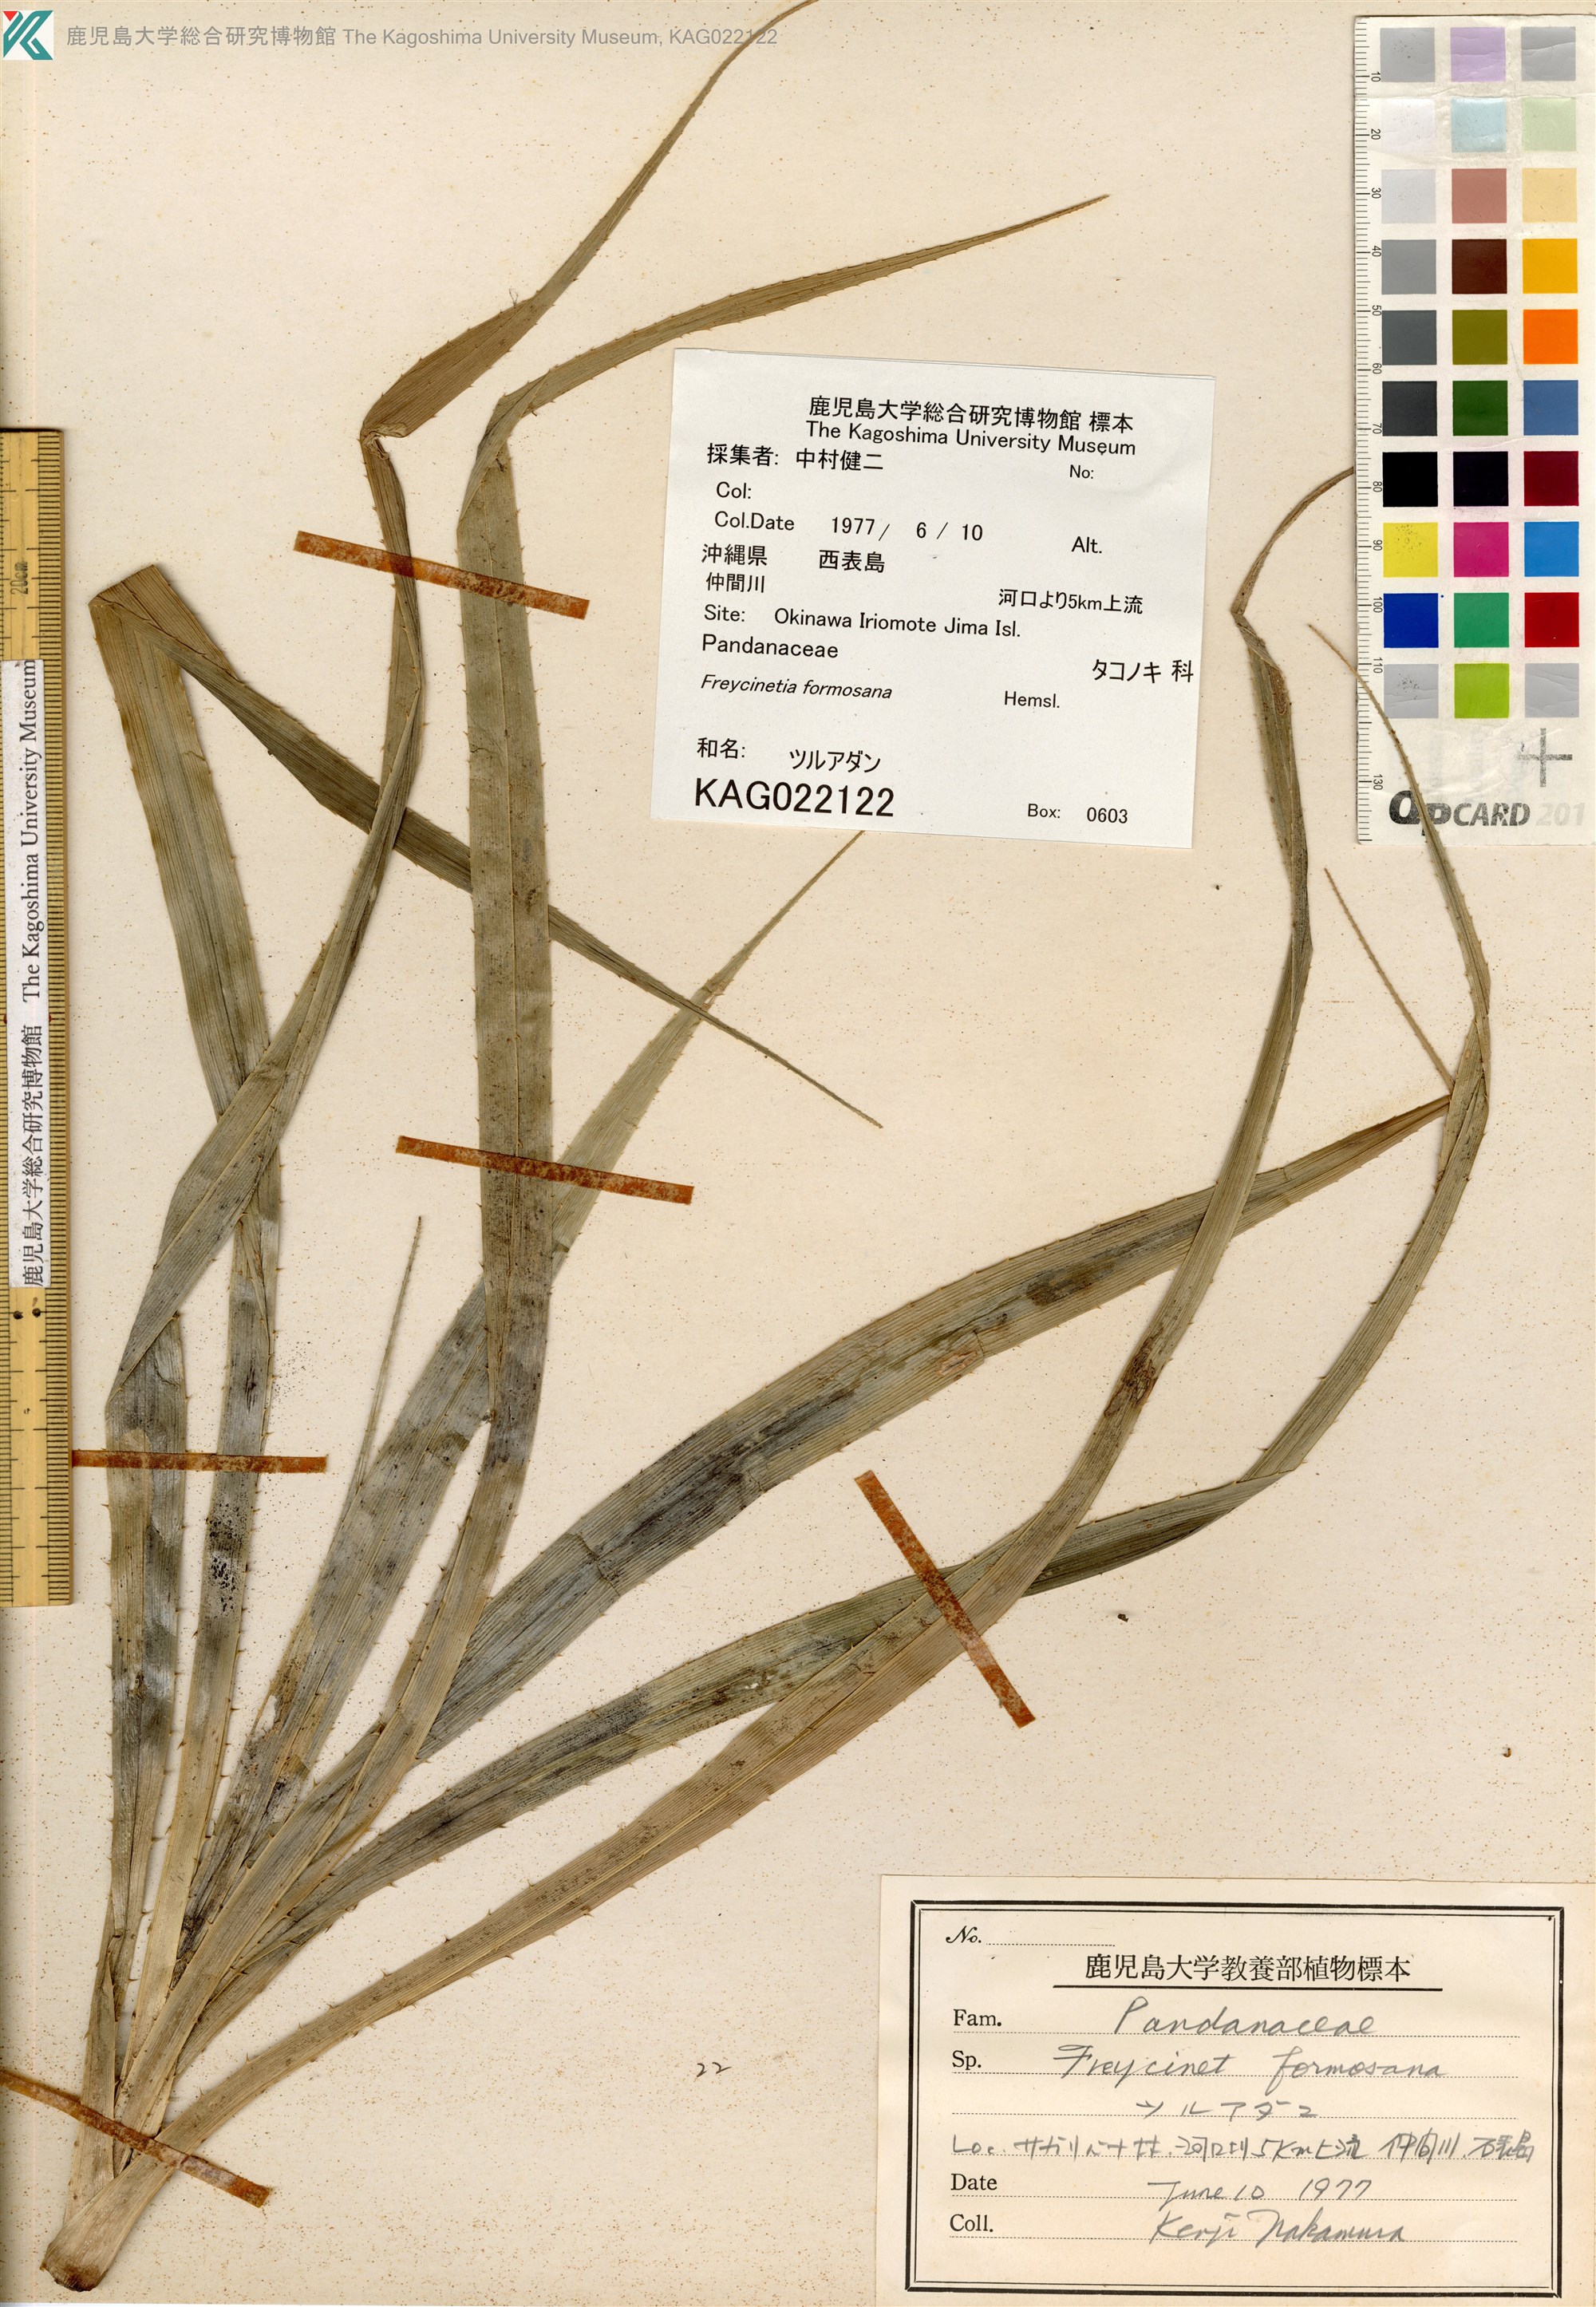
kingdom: Plantae
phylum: Tracheophyta
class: Liliopsida
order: Pandanales
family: Pandanaceae
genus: Freycinetia
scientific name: Freycinetia formosana
